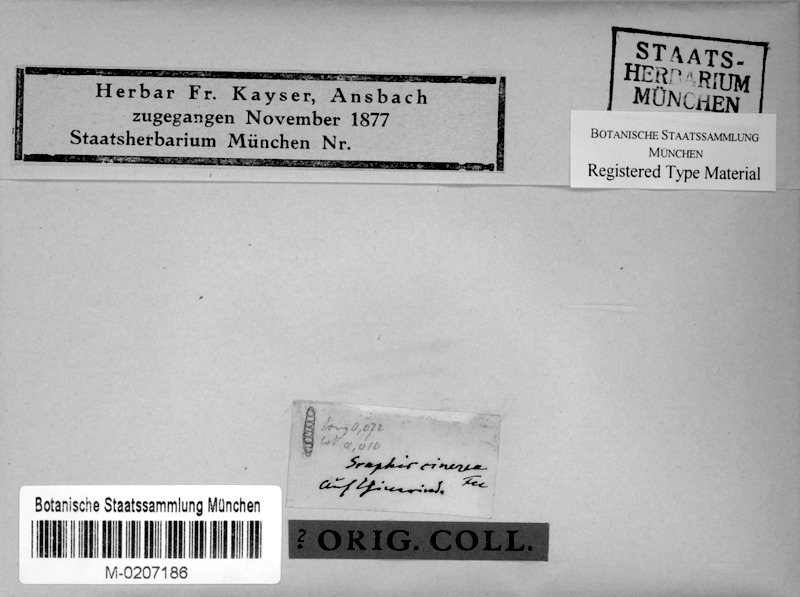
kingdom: Fungi
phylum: Ascomycota
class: Lecanoromycetes
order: Ostropales
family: Graphidaceae
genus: Allographa
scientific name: Allographa cinerea
